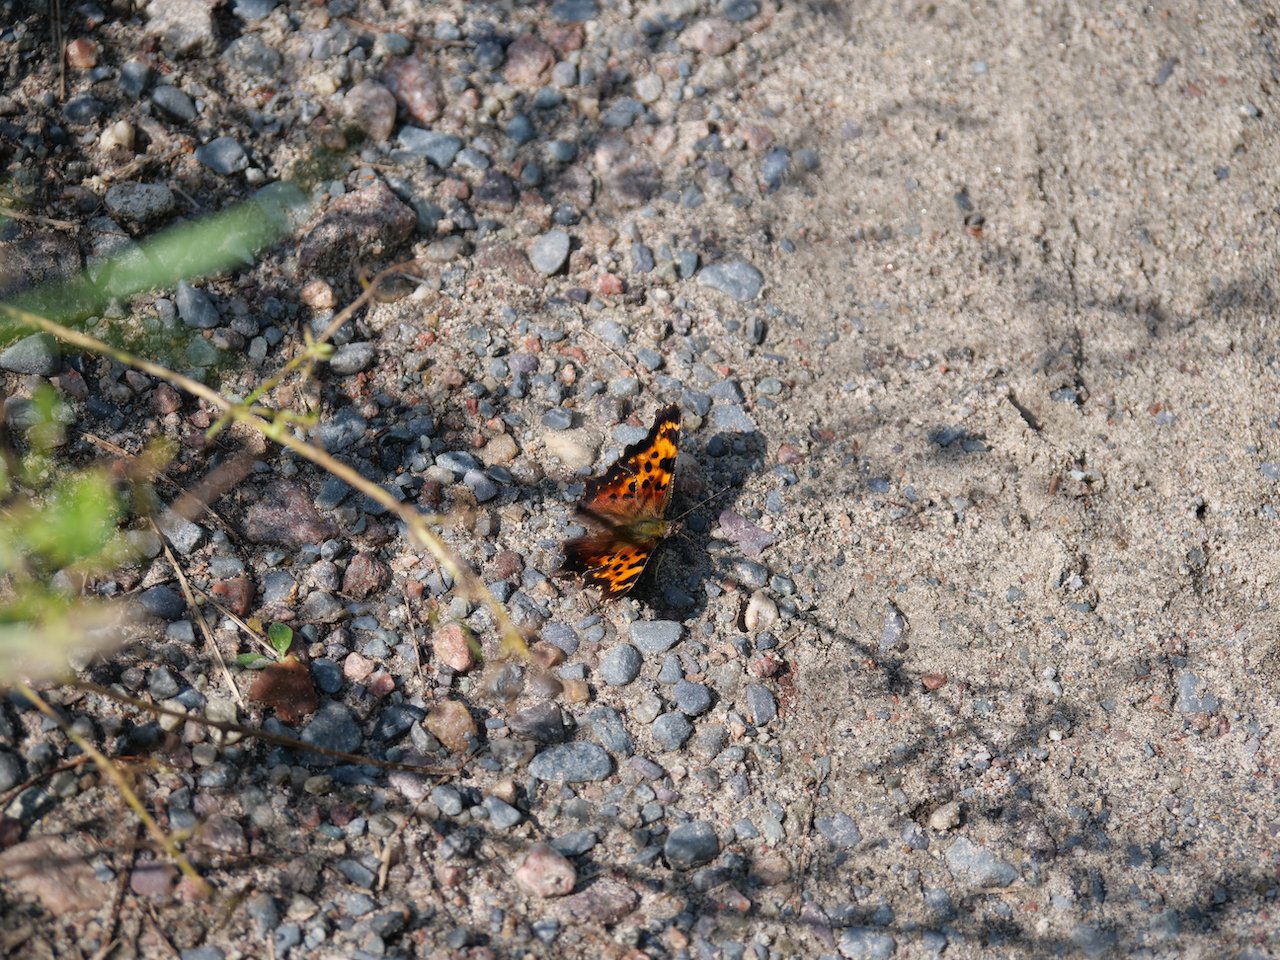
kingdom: Animalia
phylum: Arthropoda
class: Insecta
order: Lepidoptera
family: Nymphalidae
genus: Polygonia
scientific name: Polygonia faunus
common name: Green Comma
